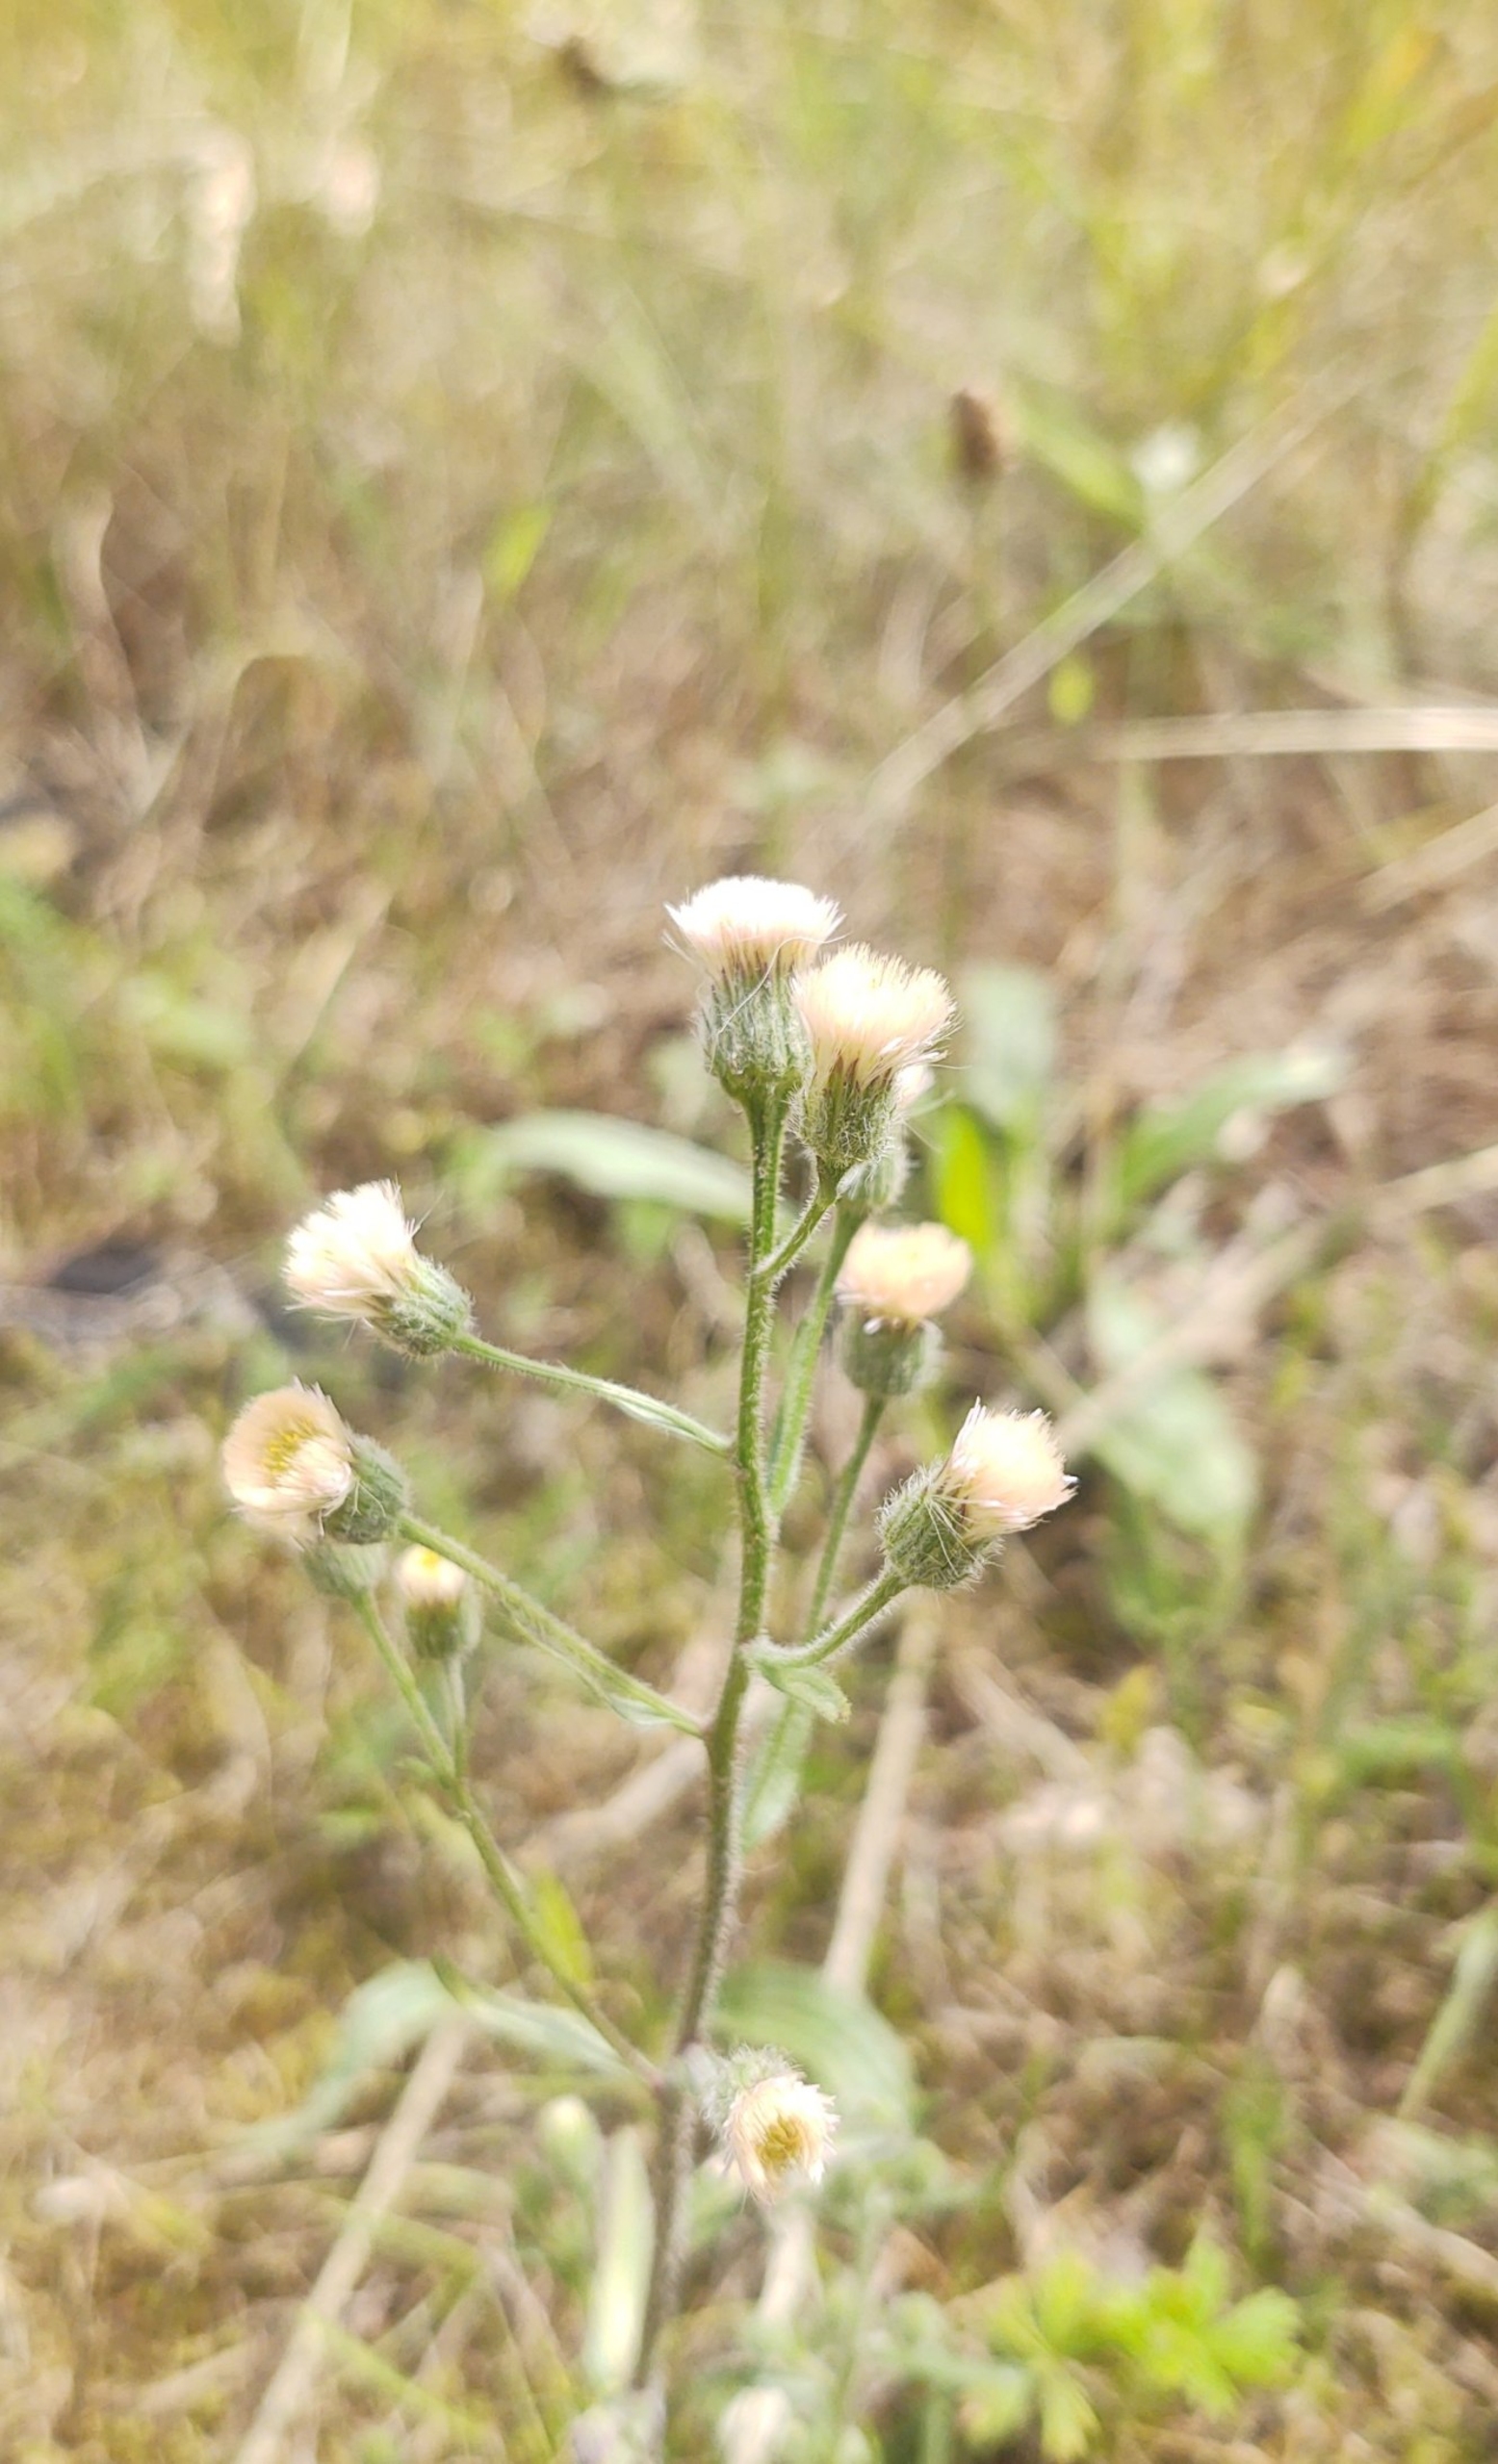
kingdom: Plantae
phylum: Tracheophyta
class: Magnoliopsida
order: Asterales
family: Asteraceae
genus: Erigeron
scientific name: Erigeron acris
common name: Bitter bakkestjerne
